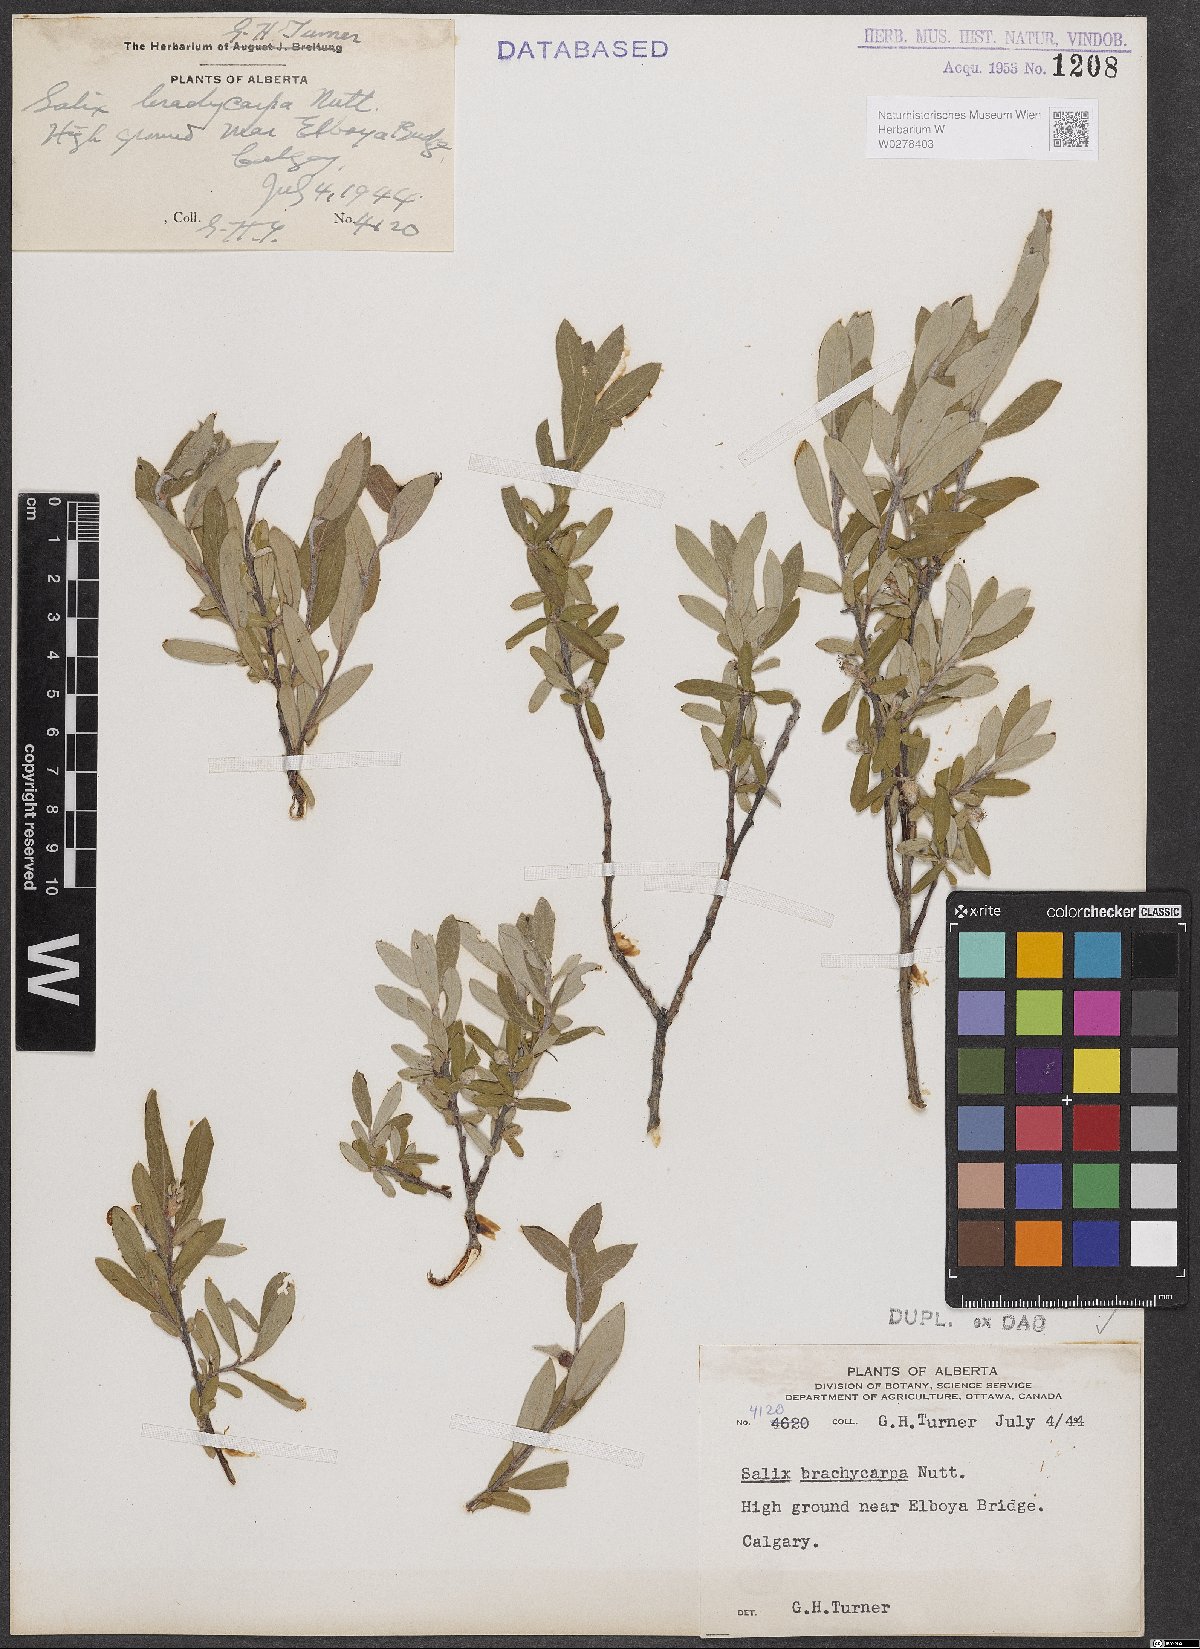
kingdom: Plantae
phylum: Tracheophyta
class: Magnoliopsida
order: Malpighiales
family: Salicaceae
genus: Salix
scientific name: Salix brachycarpa
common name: Barren-ground willow
